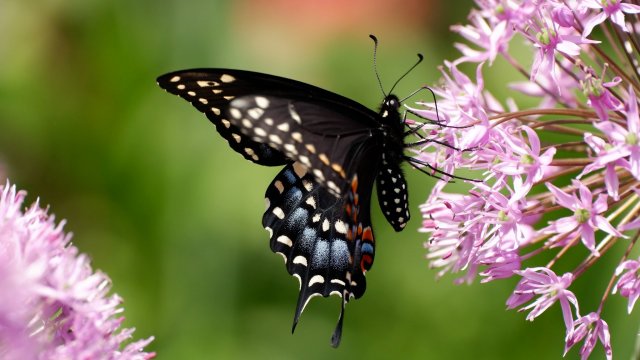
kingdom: Animalia
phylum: Arthropoda
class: Insecta
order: Lepidoptera
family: Papilionidae
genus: Papilio
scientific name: Papilio polyxenes
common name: Black Swallowtail
